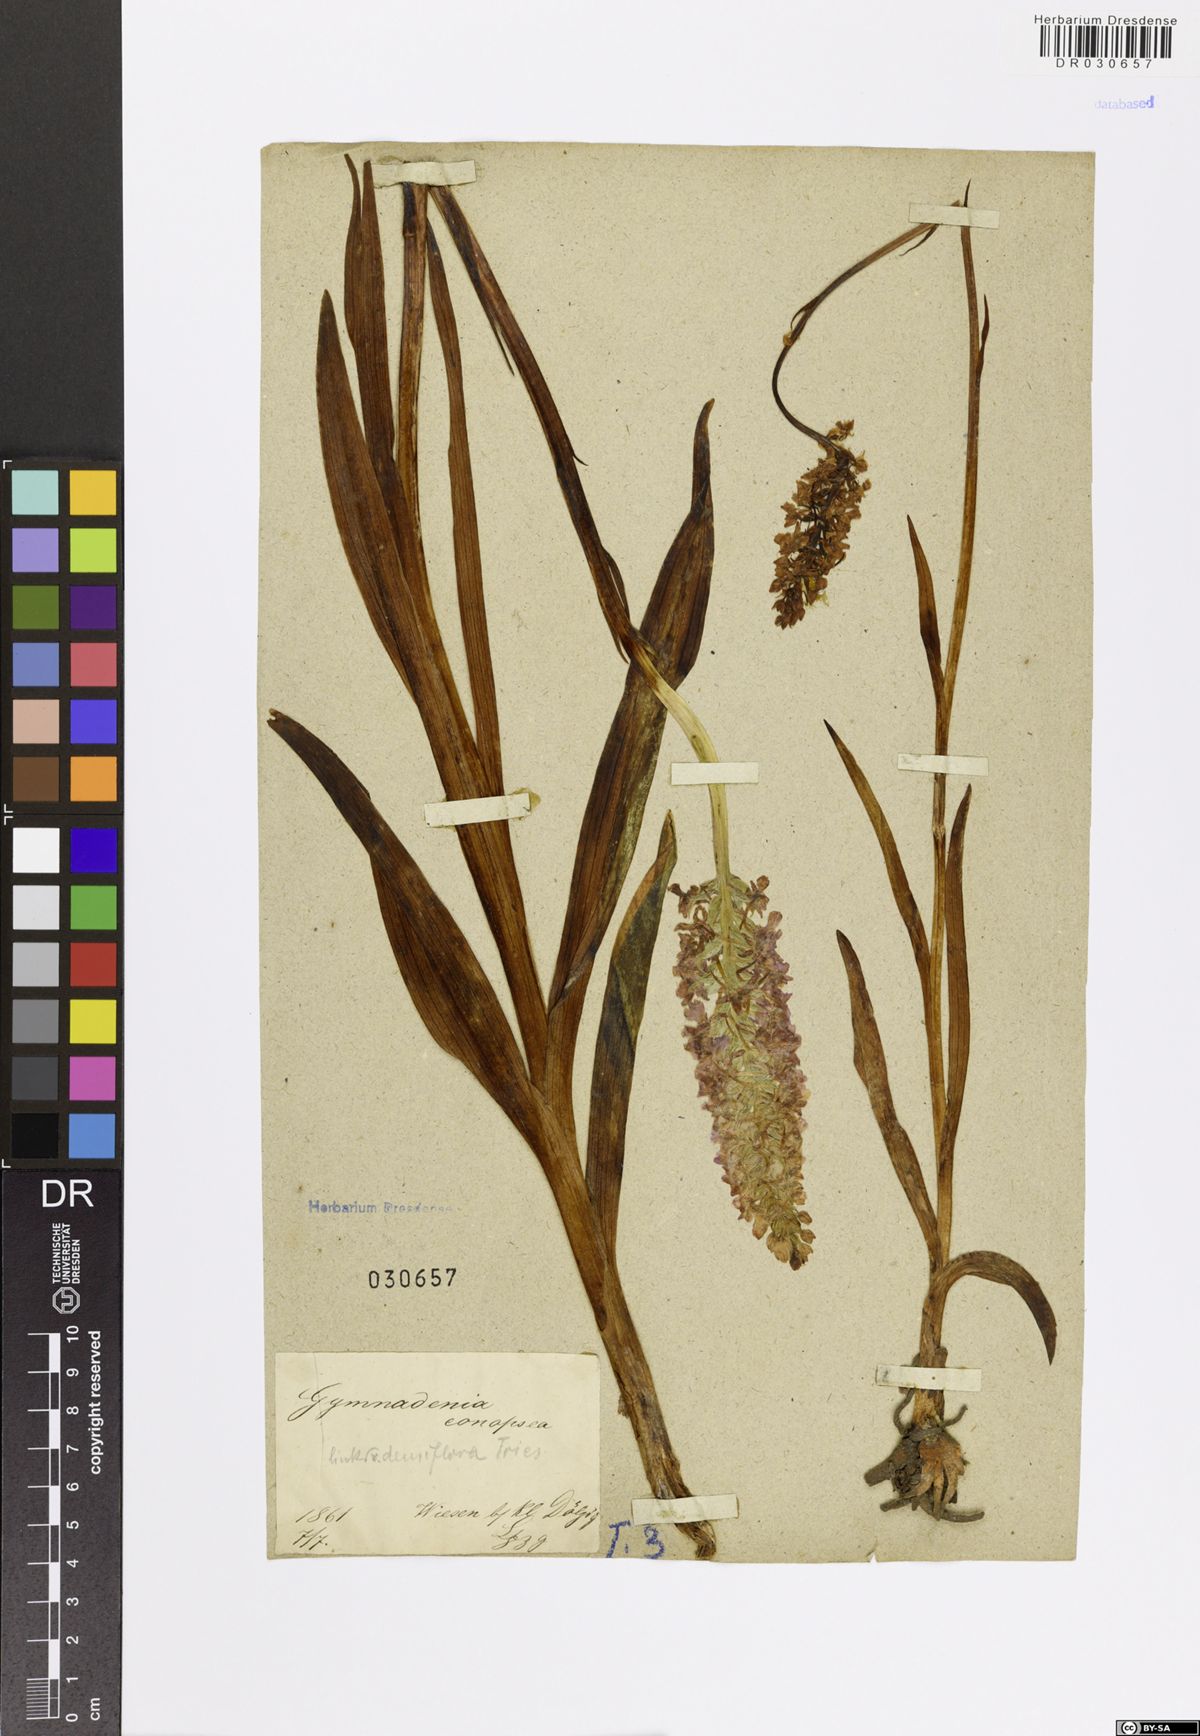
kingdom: Plantae
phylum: Tracheophyta
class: Liliopsida
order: Asparagales
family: Orchidaceae
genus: Gymnadenia
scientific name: Gymnadenia conopsea
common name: Fragrant orchid
